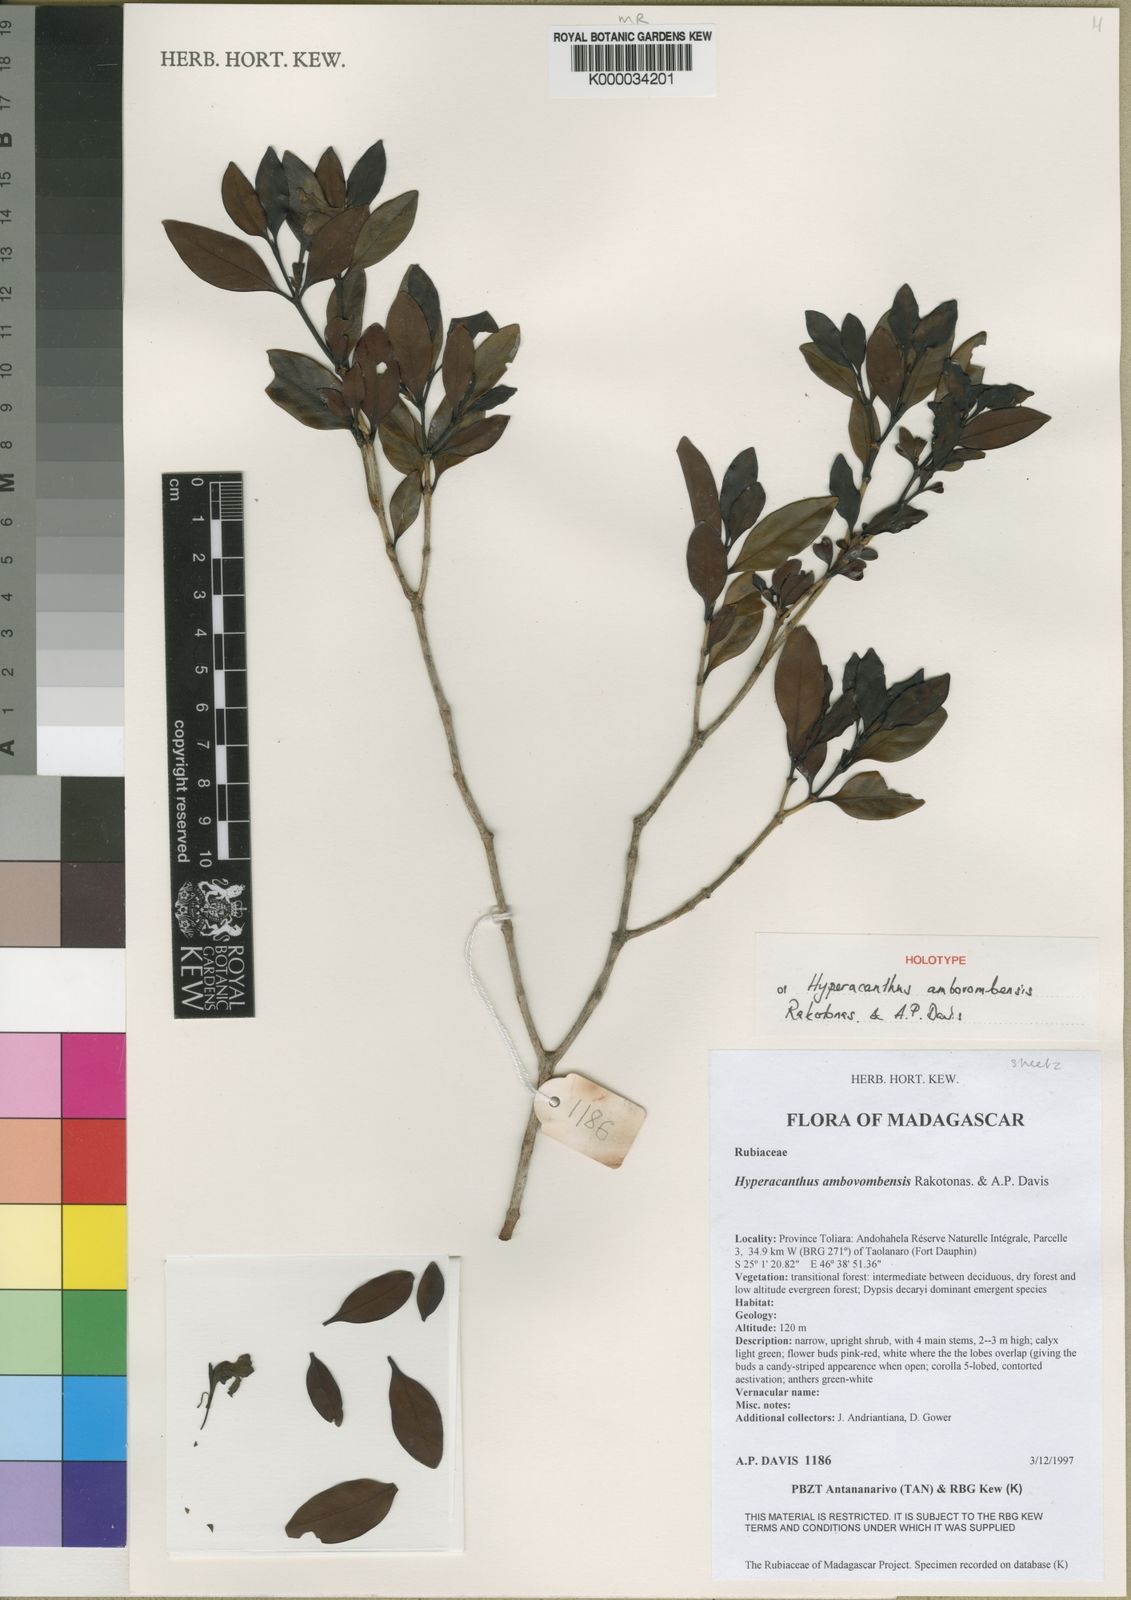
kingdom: Plantae
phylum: Tracheophyta
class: Magnoliopsida
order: Gentianales
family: Rubiaceae
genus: Hyperacanthus
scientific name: Hyperacanthus ambovombensis
